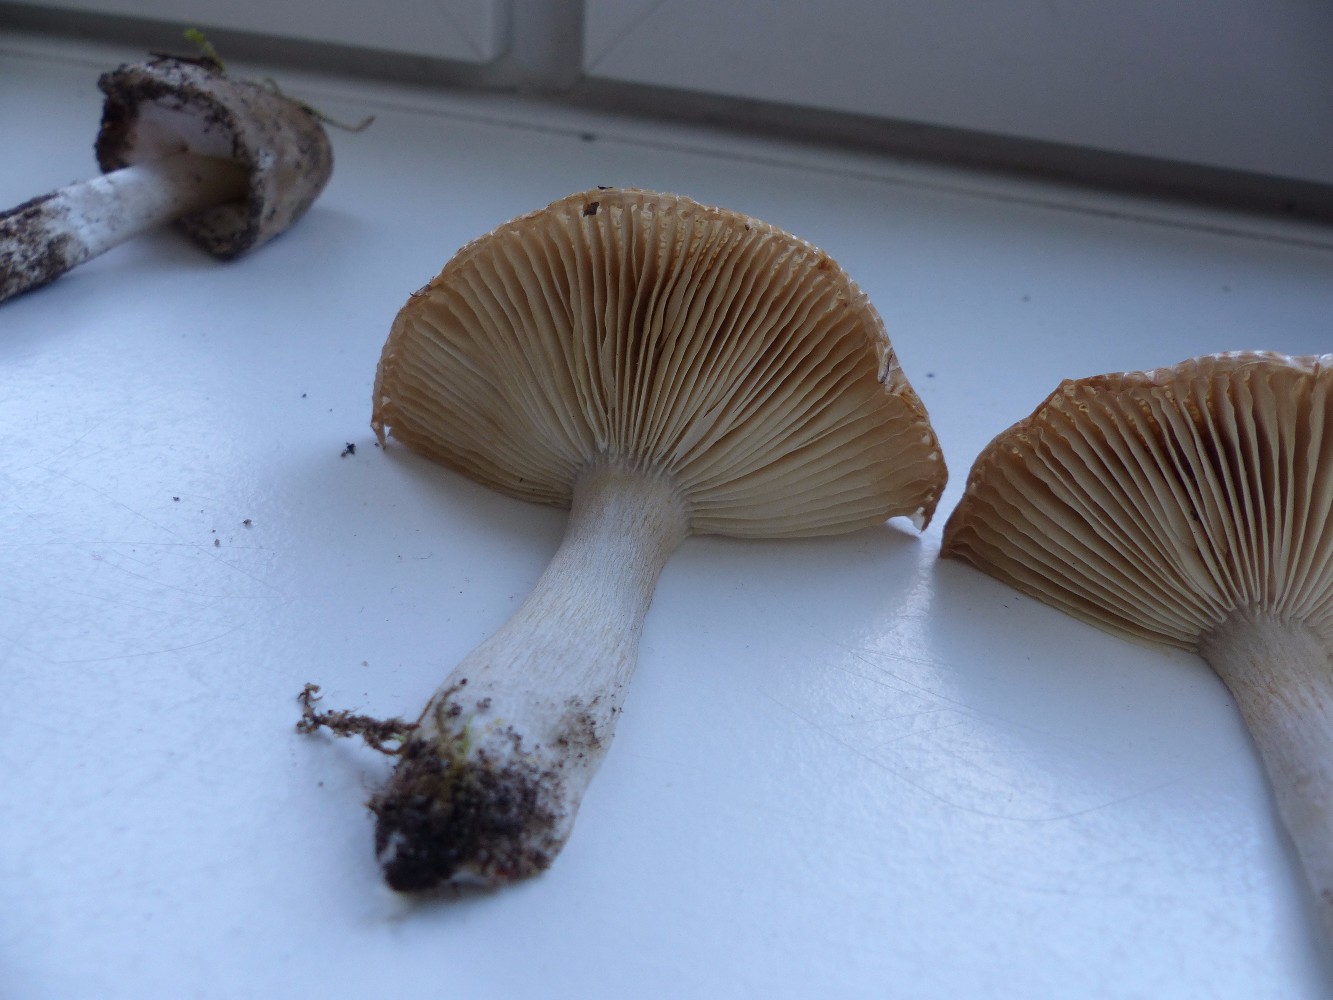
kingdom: Fungi
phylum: Basidiomycota
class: Agaricomycetes
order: Russulales
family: Russulaceae
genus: Russula
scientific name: Russula recondita
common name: mild kam-skørhat
